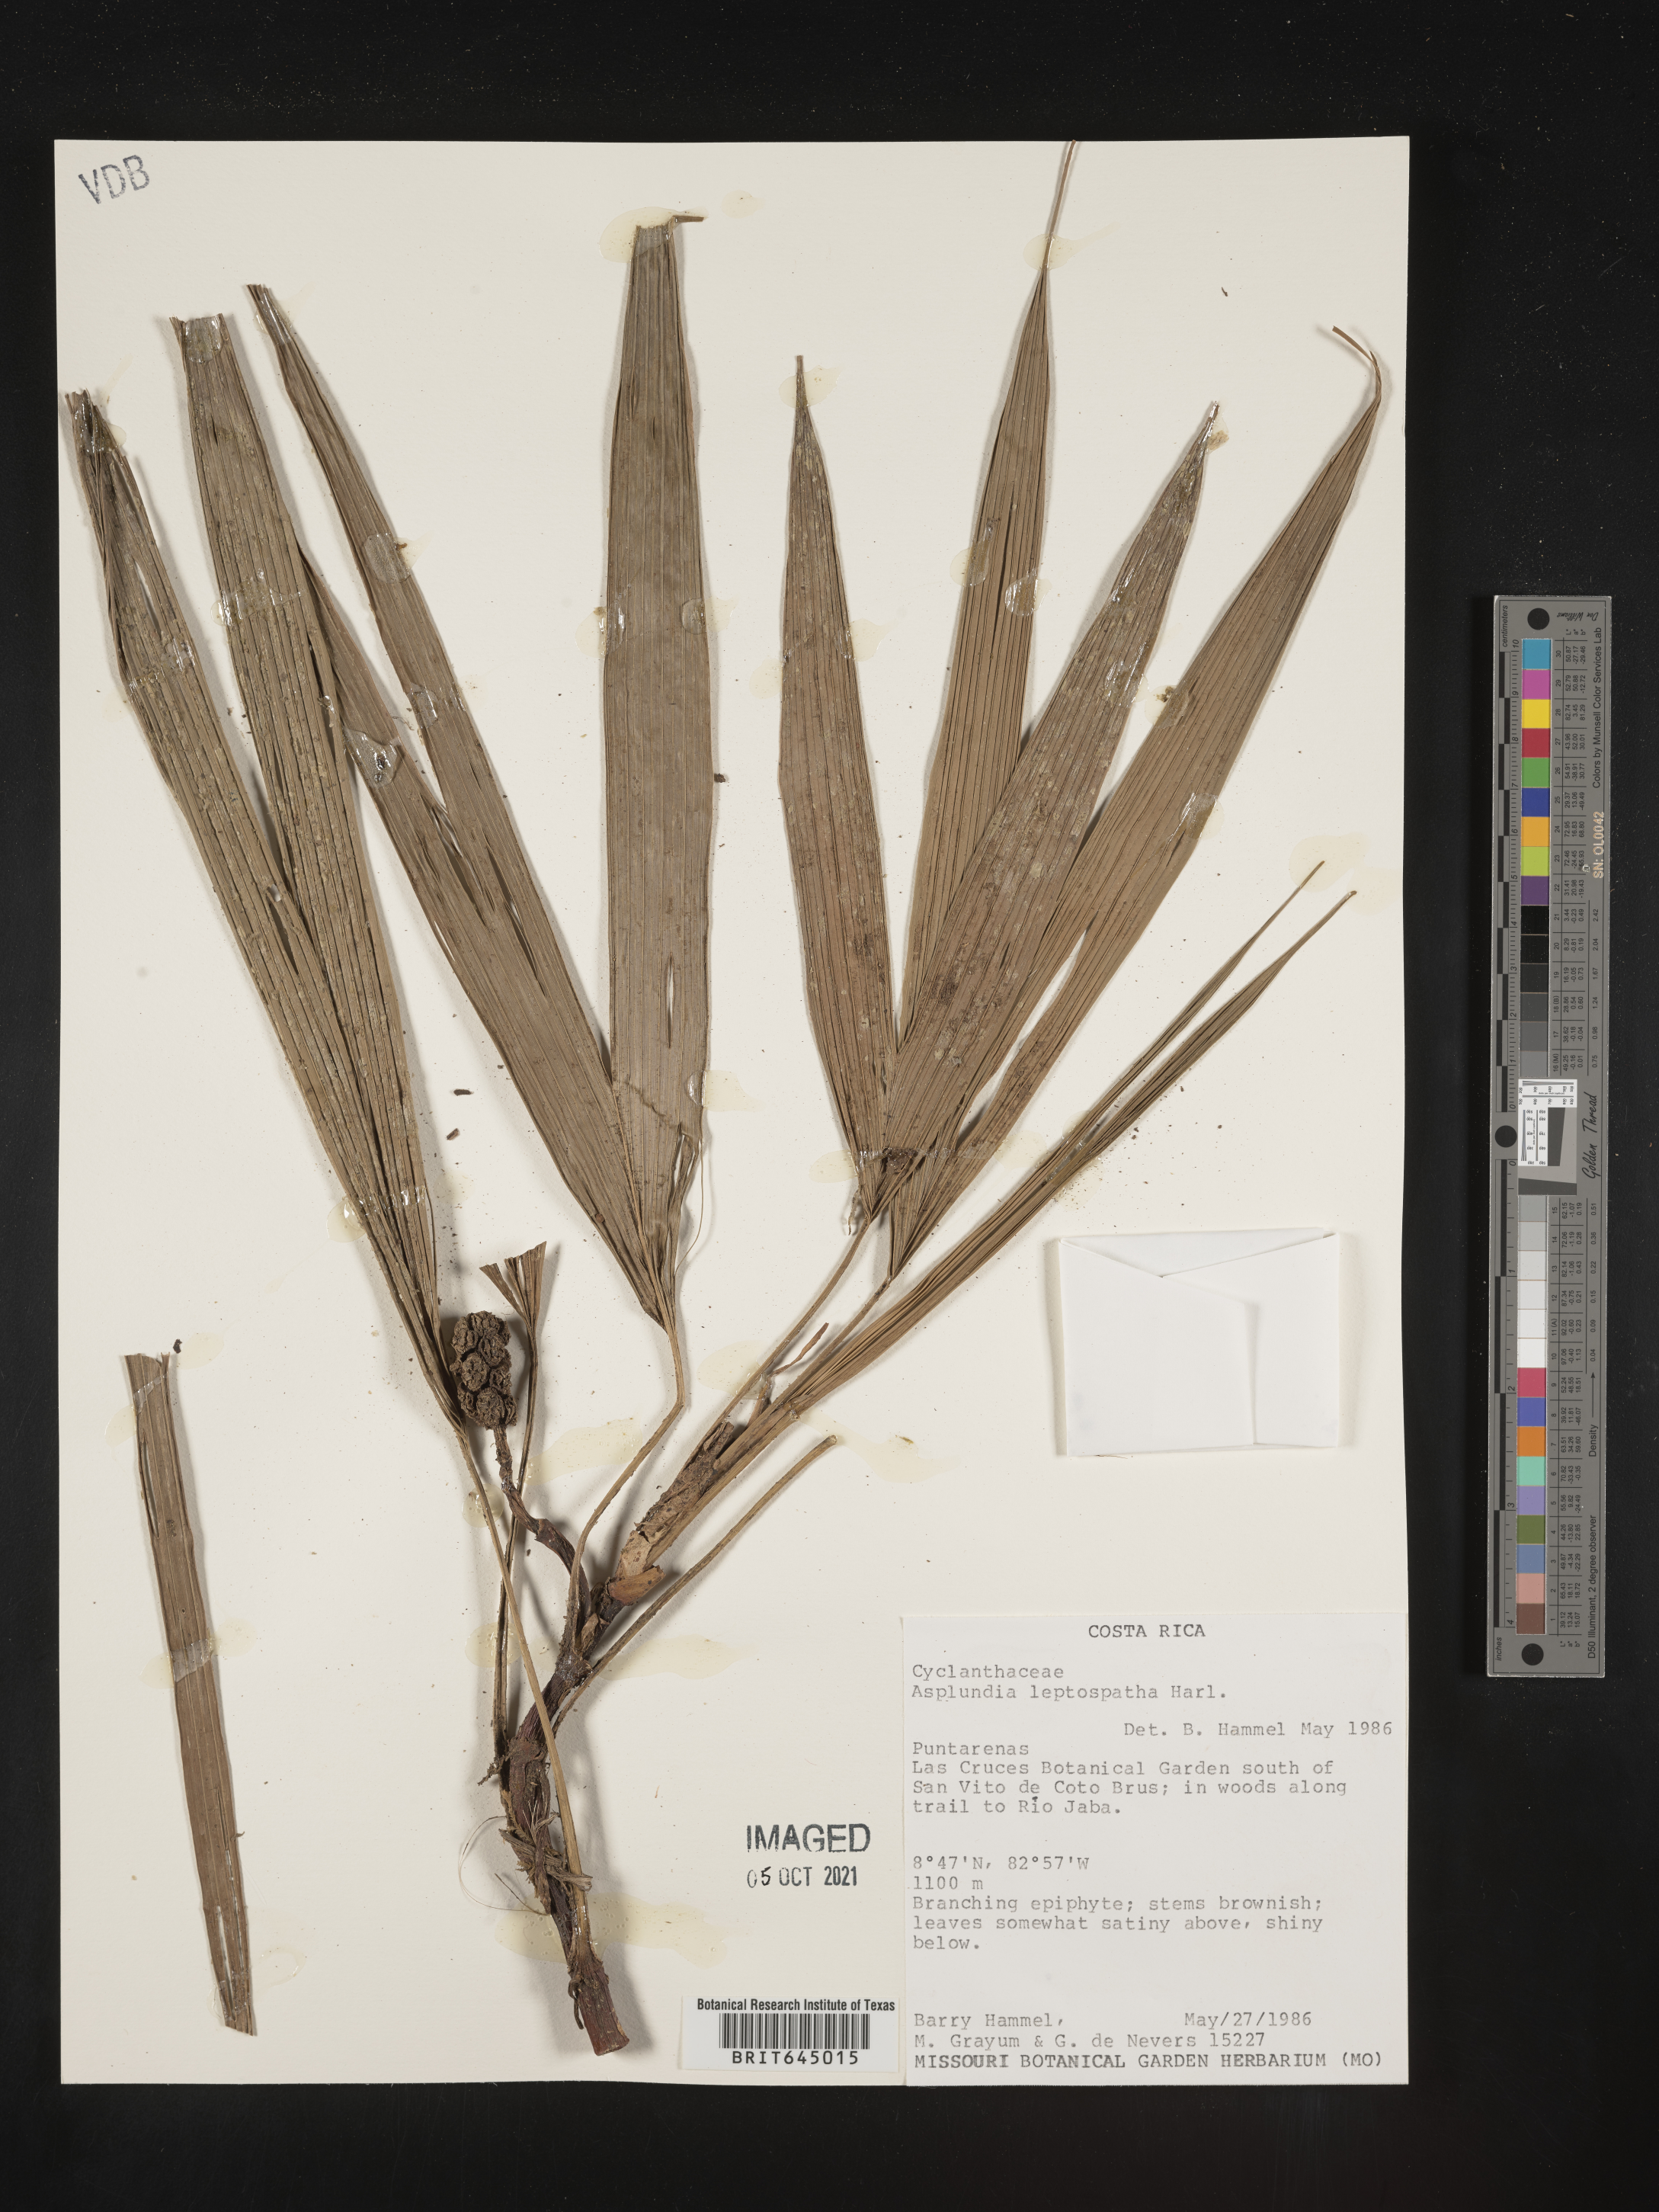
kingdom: Plantae
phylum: Tracheophyta
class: Liliopsida
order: Pandanales
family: Cyclanthaceae
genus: Asplundia
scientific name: Asplundia isabellina
